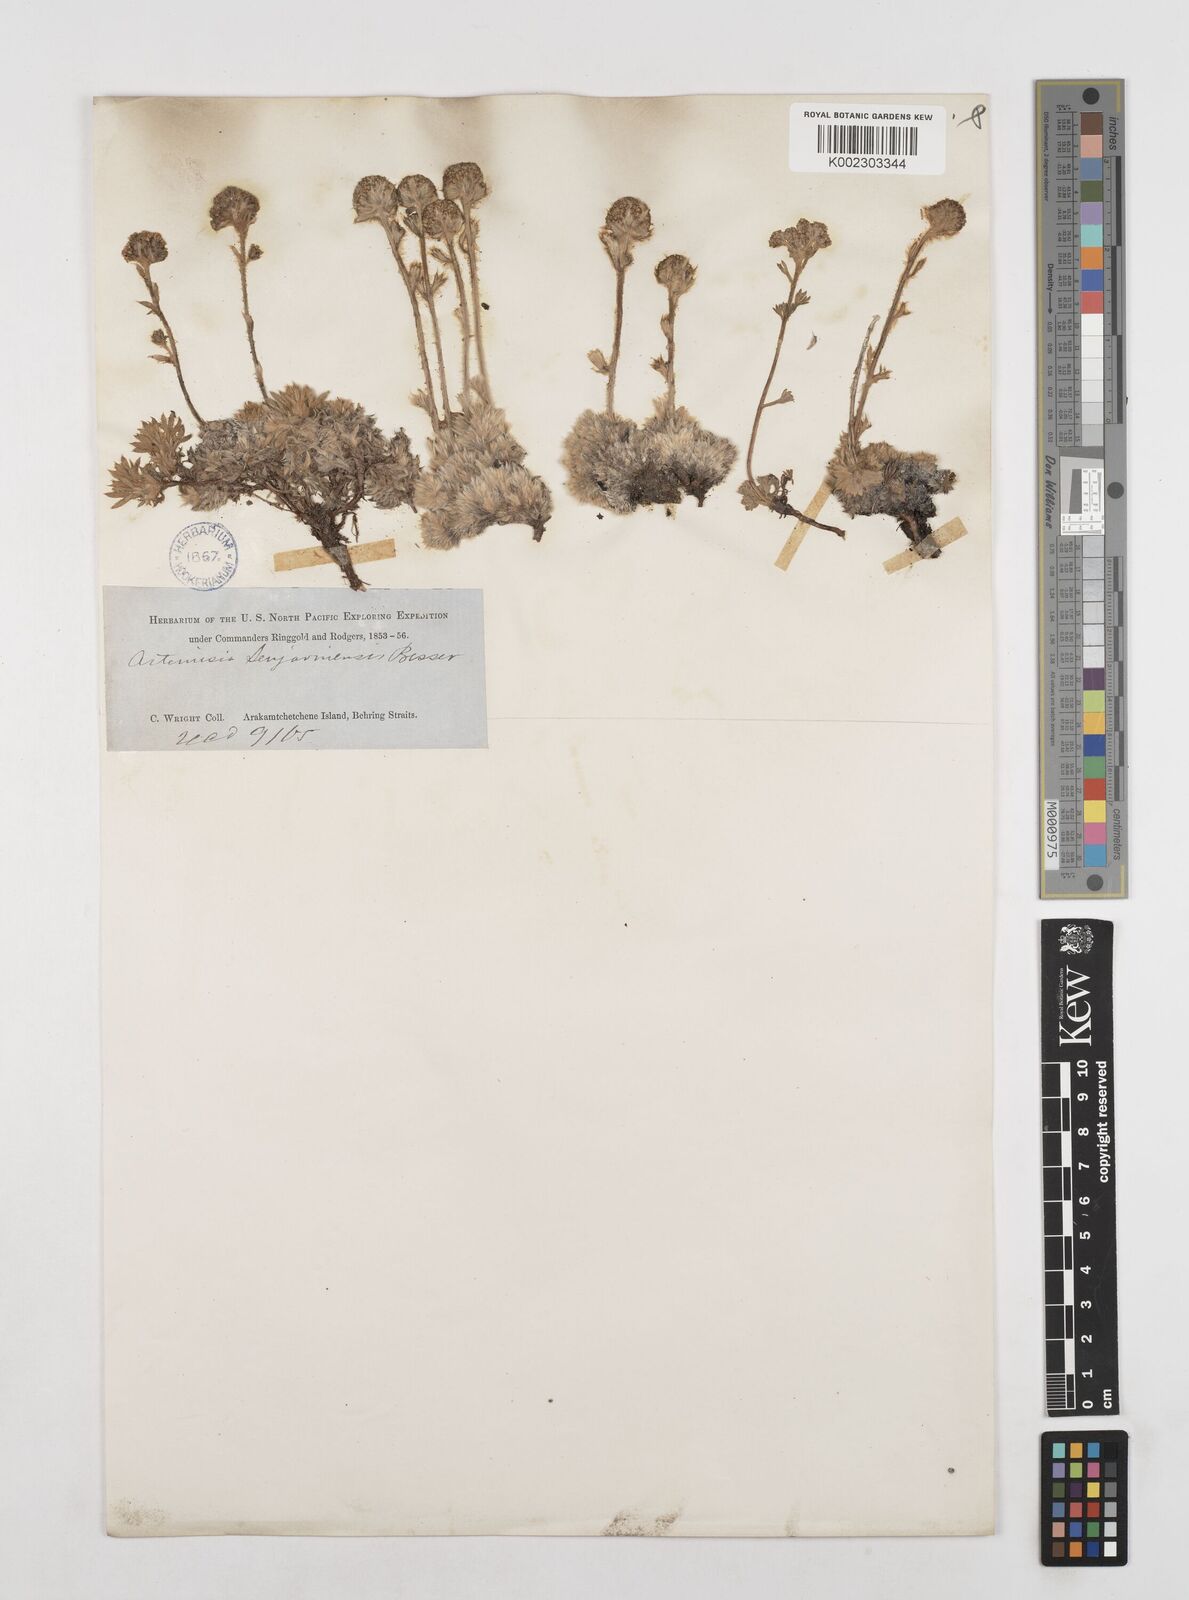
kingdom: Plantae
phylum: Tracheophyta
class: Magnoliopsida
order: Asterales
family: Asteraceae
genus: Artemisia
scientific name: Artemisia senjavinensis
